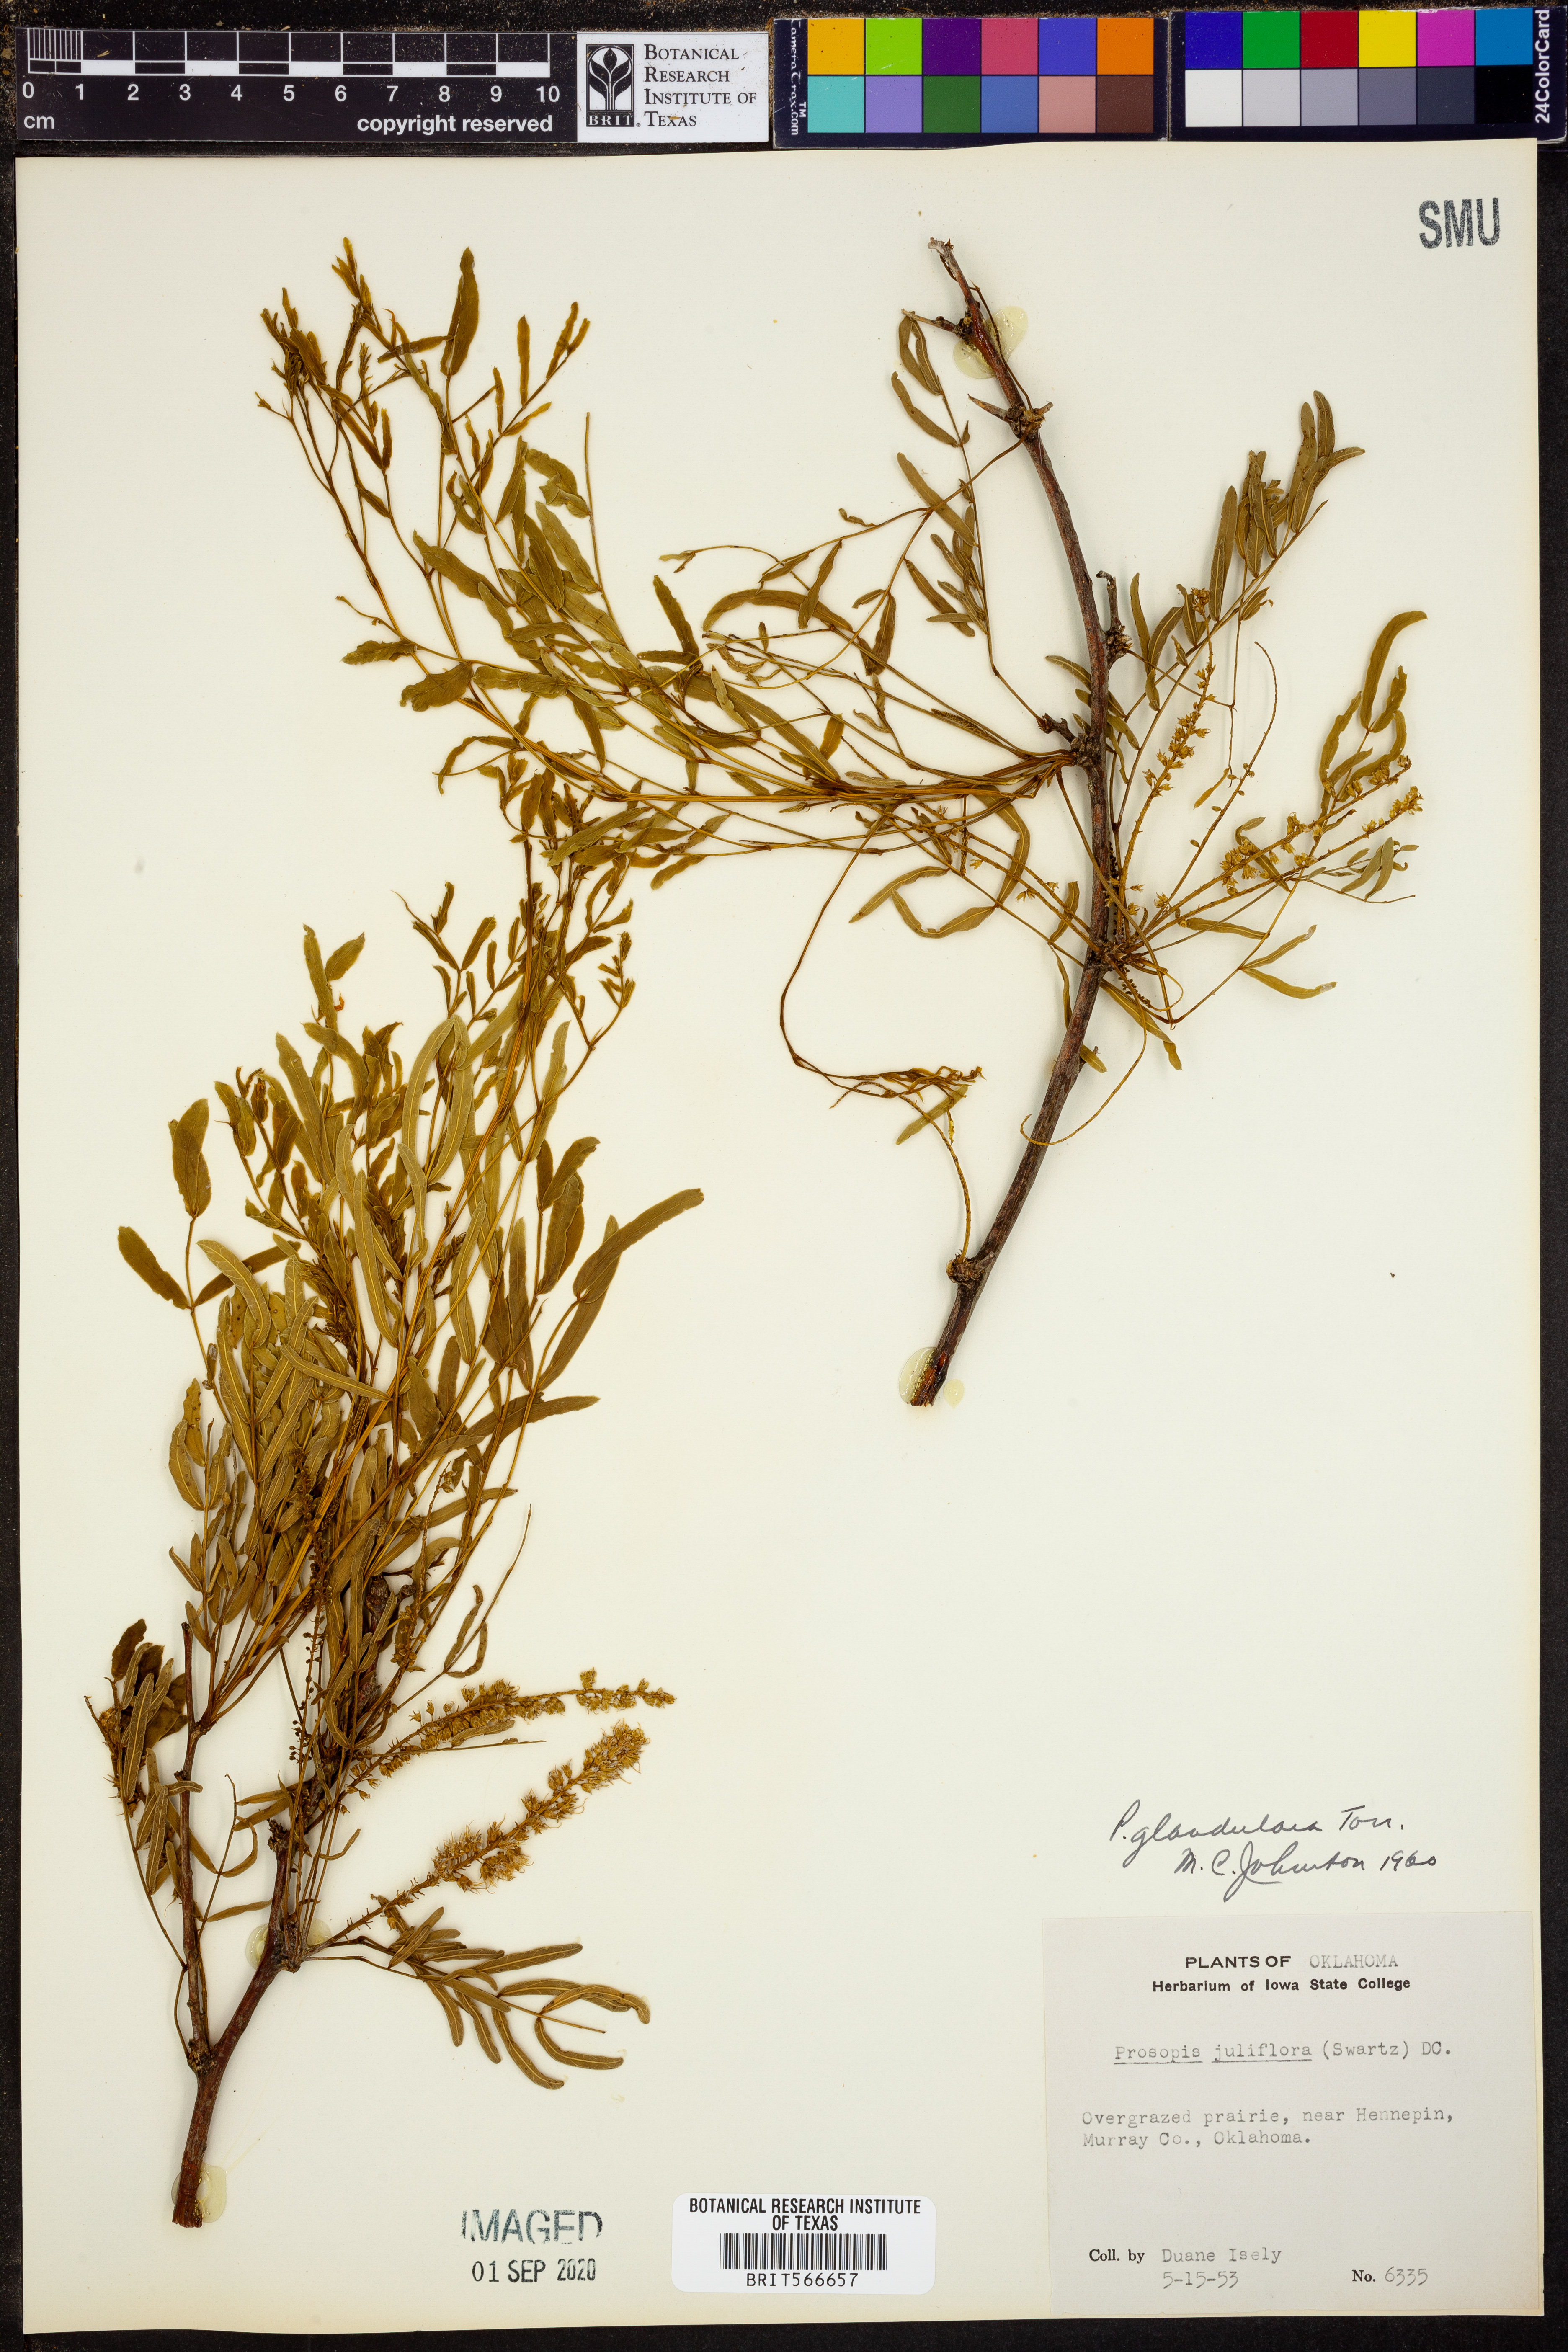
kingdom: Plantae
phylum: Tracheophyta
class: Magnoliopsida
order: Fabales
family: Fabaceae
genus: Prosopis
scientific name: Prosopis glandulosa
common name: Honey mesquite
